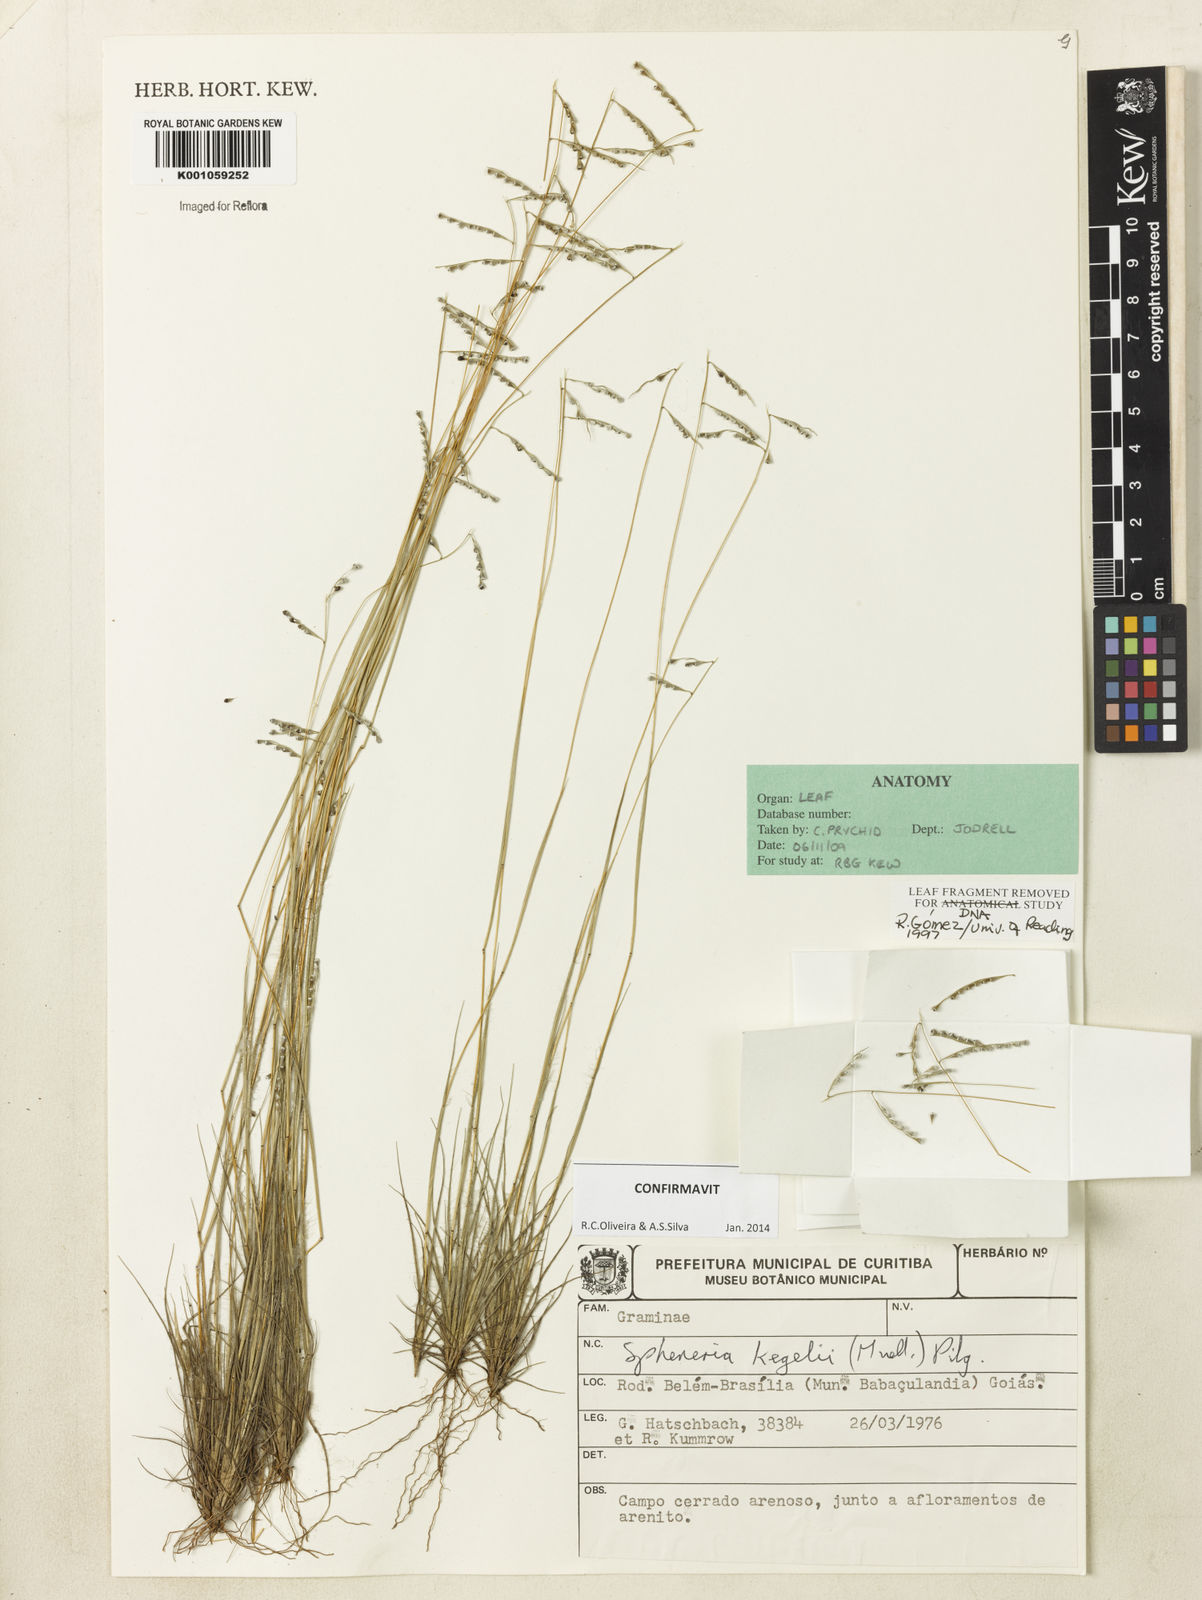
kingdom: Plantae
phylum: Tracheophyta
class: Liliopsida
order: Poales
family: Poaceae
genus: Spheneria
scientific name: Spheneria
